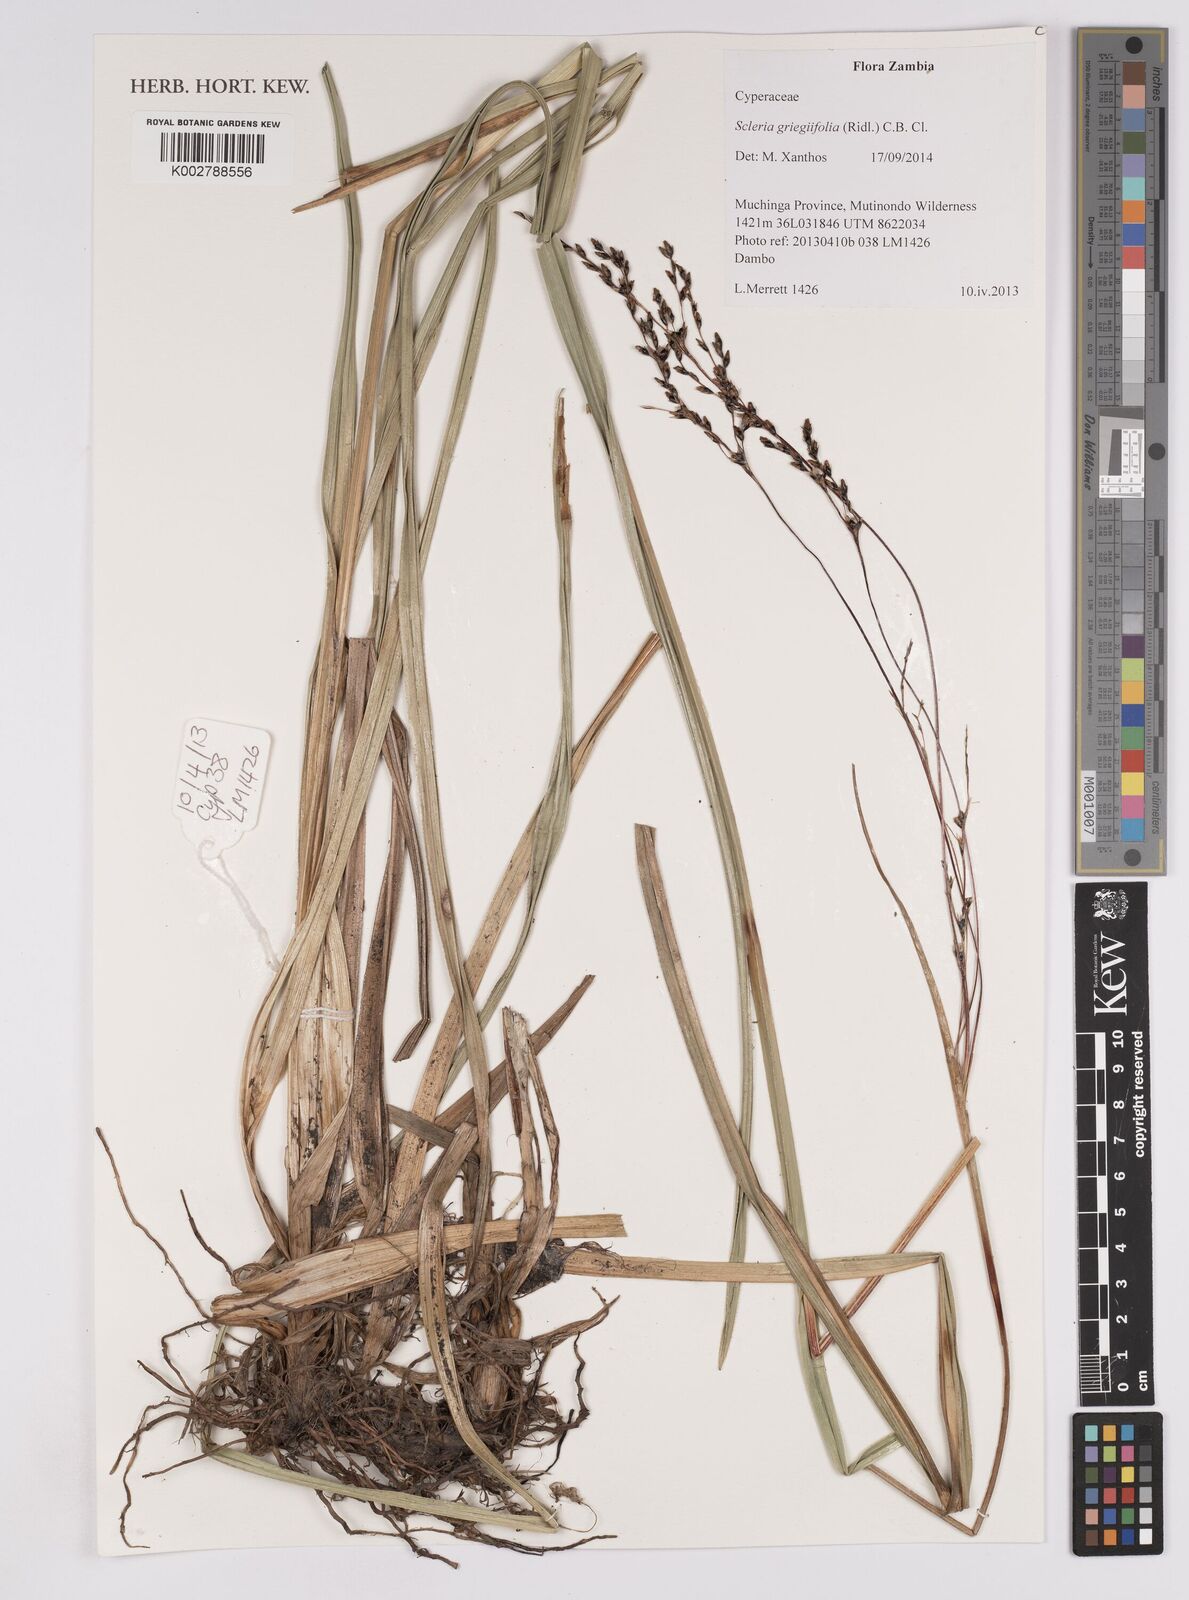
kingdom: Plantae
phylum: Tracheophyta
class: Liliopsida
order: Poales
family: Cyperaceae
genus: Scleria
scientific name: Scleria greigiifolia
